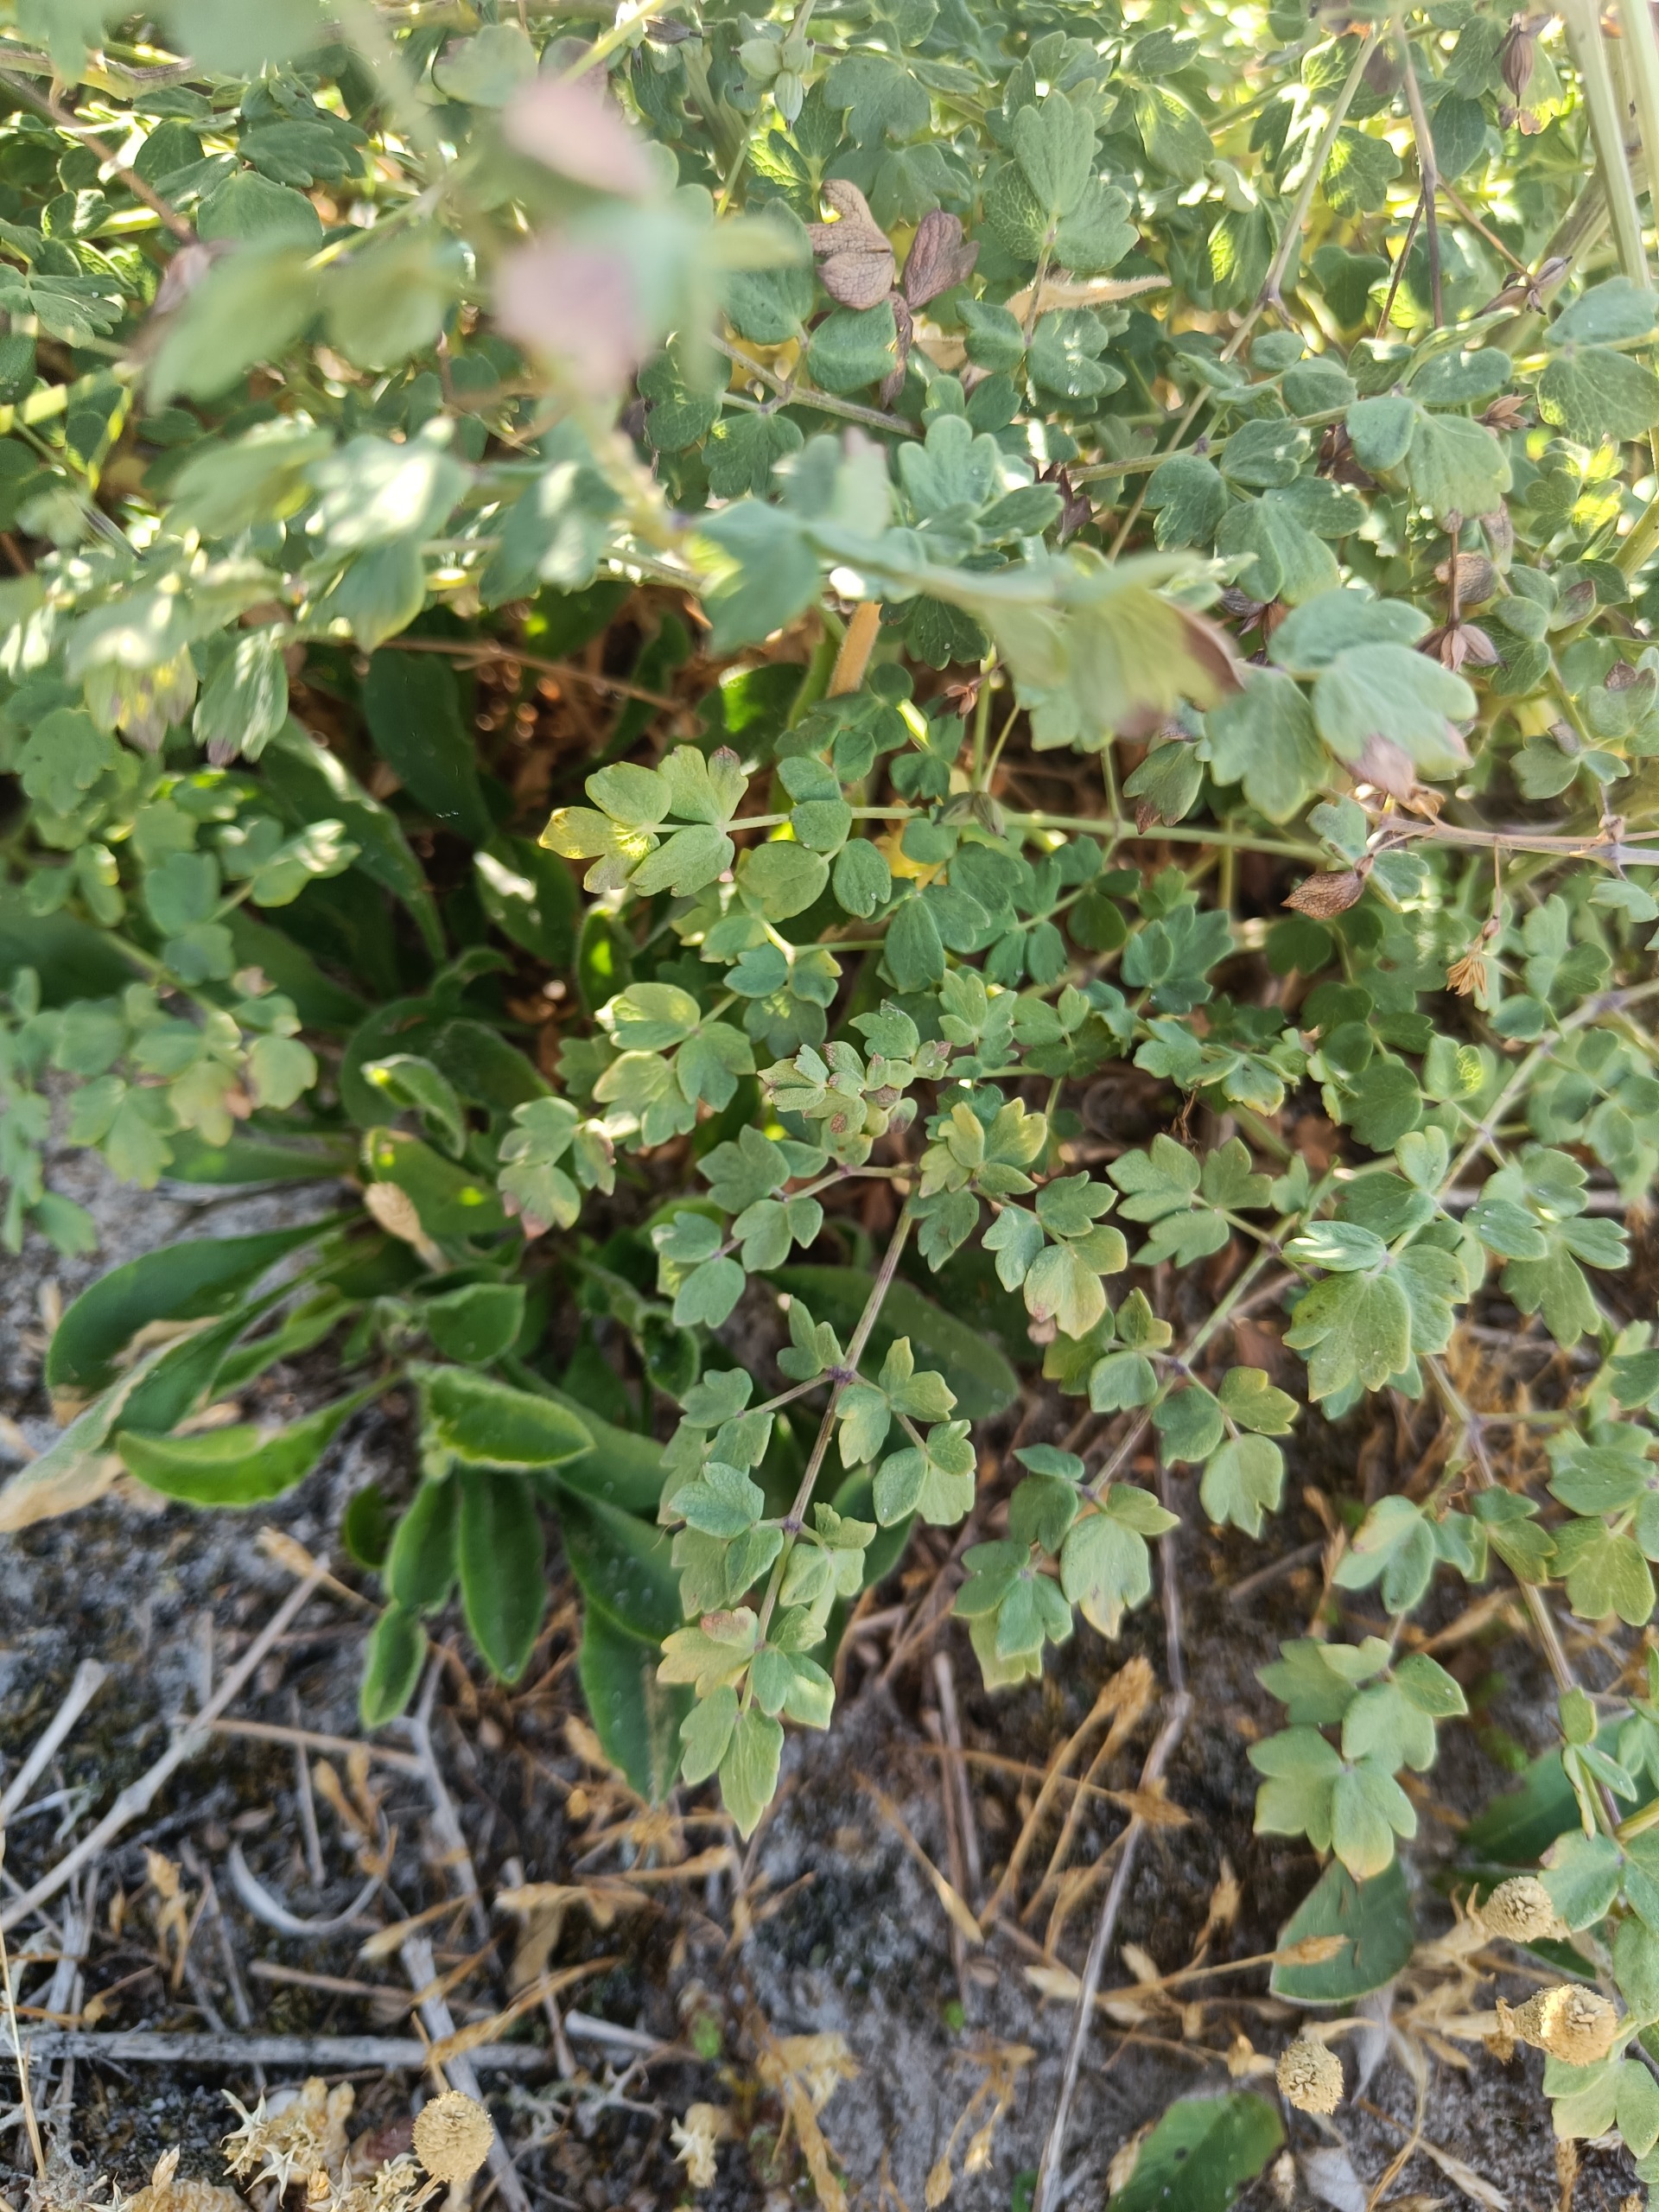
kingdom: Plantae
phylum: Tracheophyta
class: Magnoliopsida
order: Ranunculales
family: Ranunculaceae
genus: Thalictrum
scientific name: Thalictrum minus
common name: Liden frøstjerne
